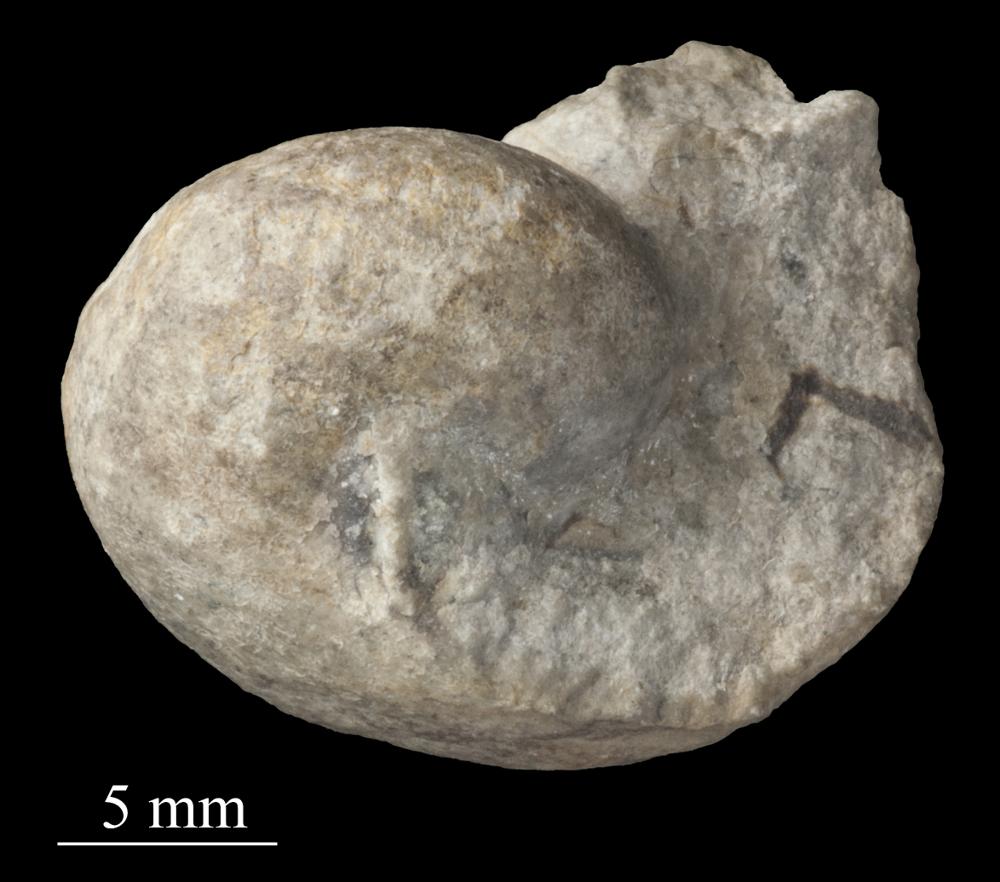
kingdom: Animalia
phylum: Mollusca
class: Gastropoda
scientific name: Gastropoda
